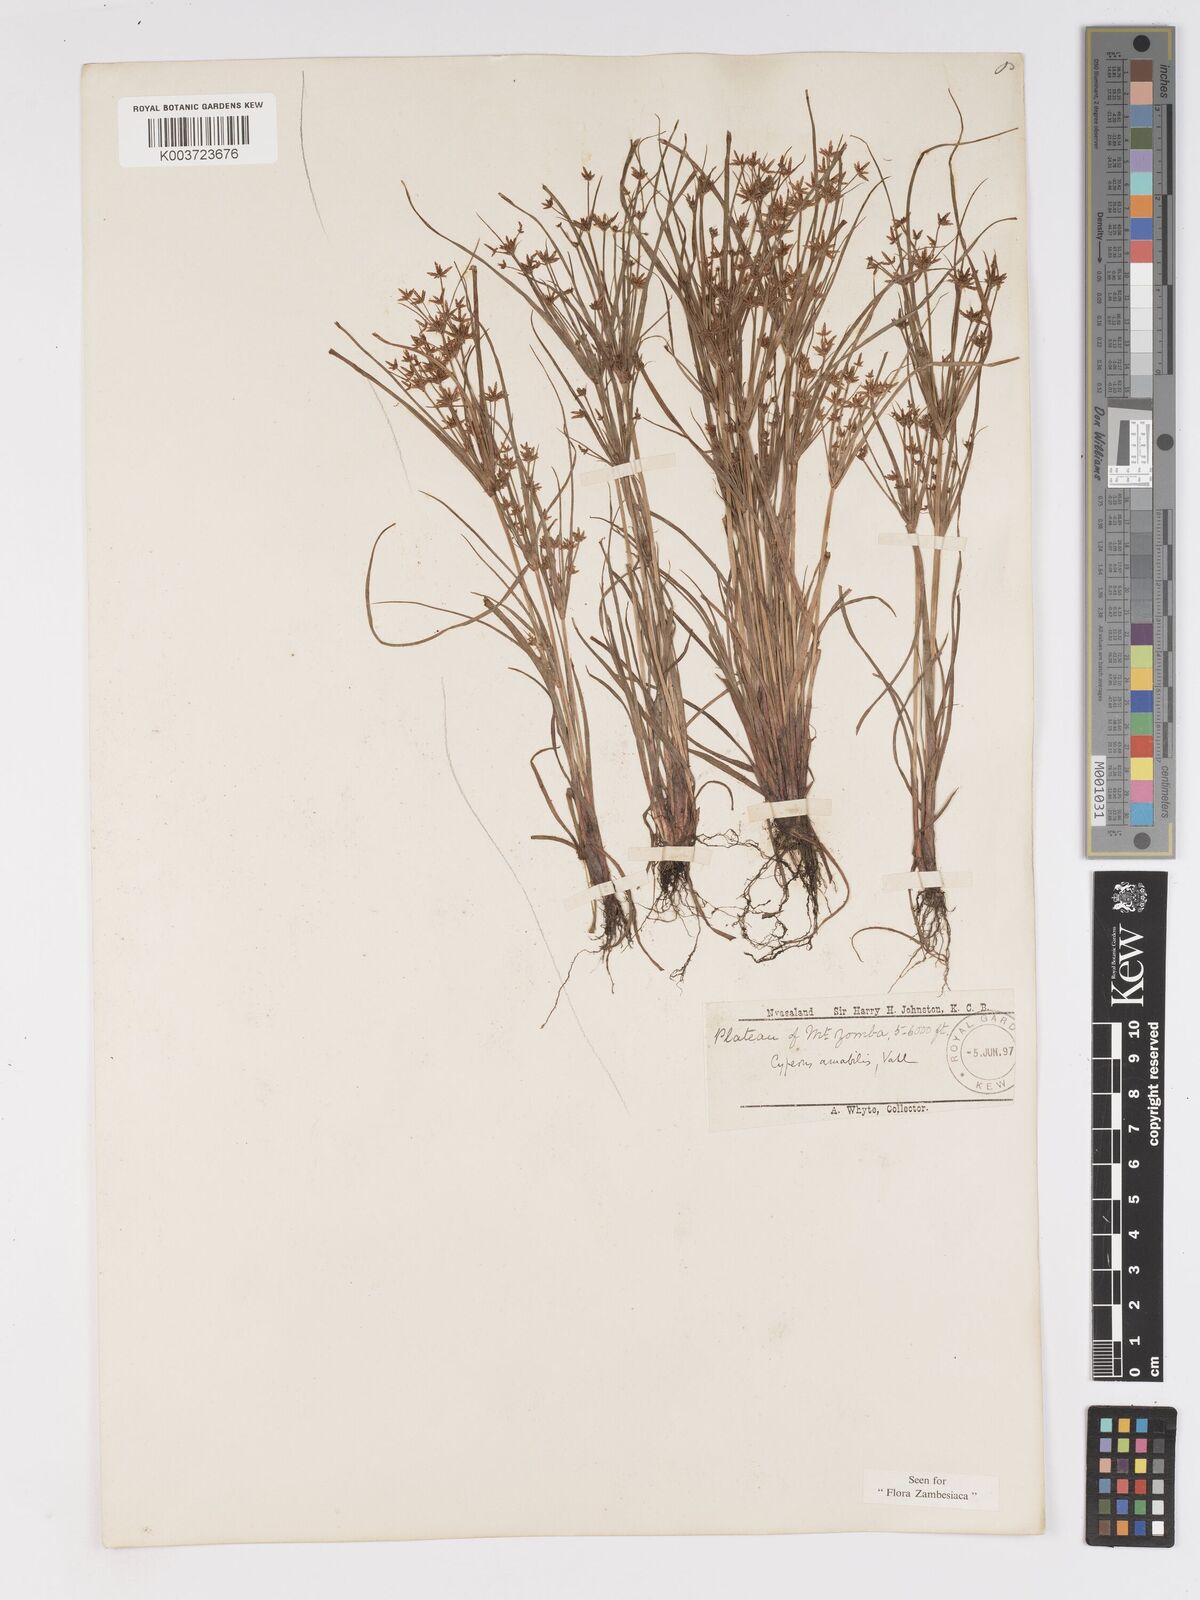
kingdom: Plantae
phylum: Tracheophyta
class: Liliopsida
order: Poales
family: Cyperaceae
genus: Cyperus
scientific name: Cyperus amabilis
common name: Foothill flat sedge
